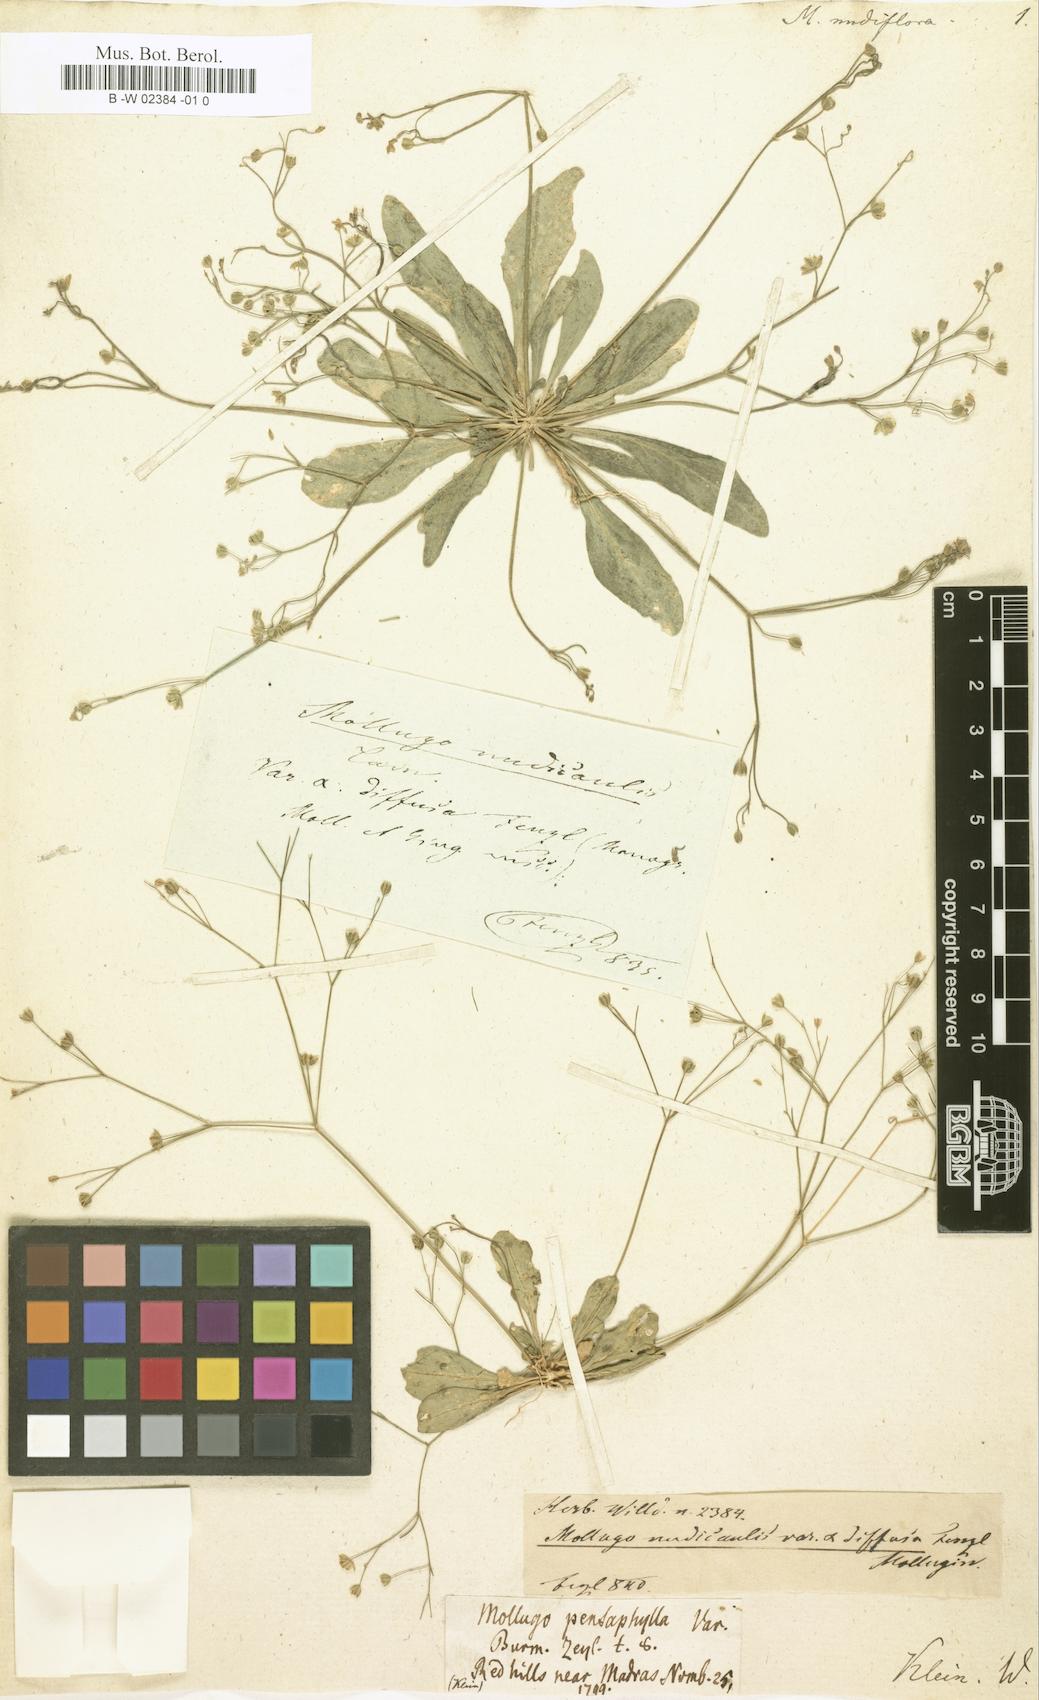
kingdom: Plantae
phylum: Tracheophyta
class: Magnoliopsida
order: Caryophyllales
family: Molluginaceae
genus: Mollugo
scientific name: Mollugo
